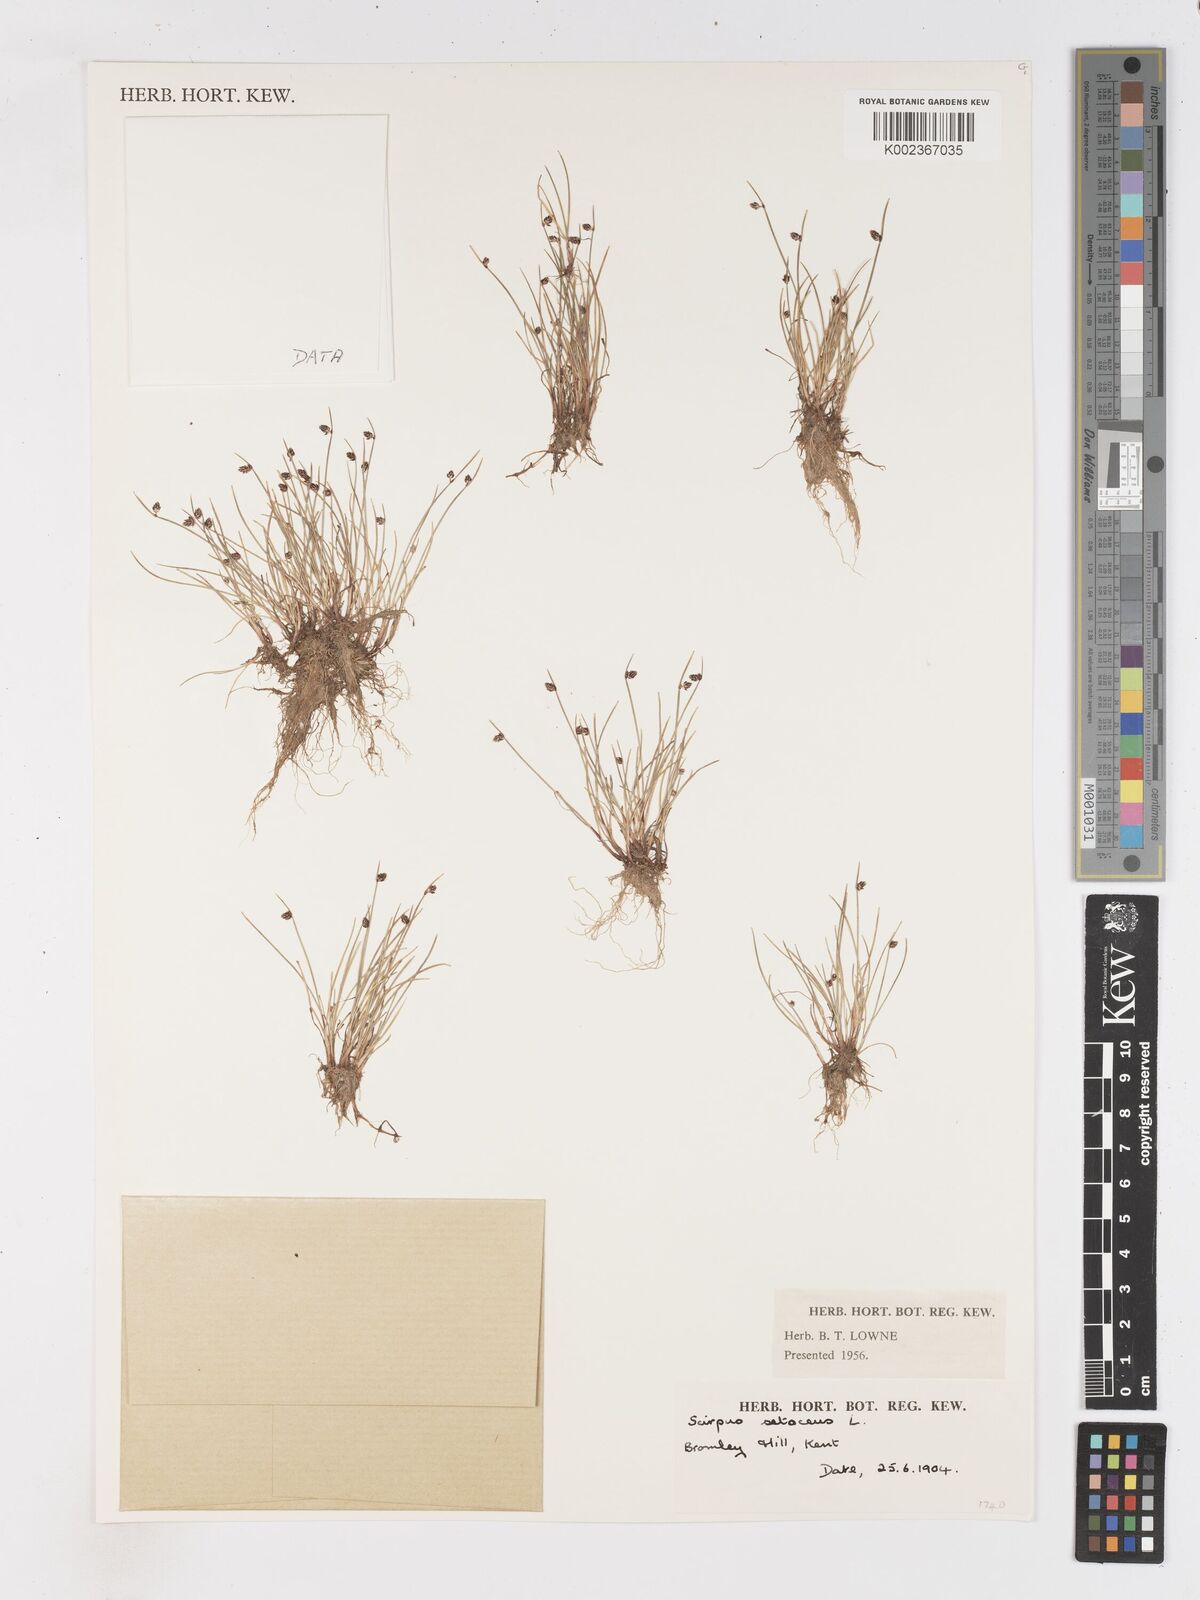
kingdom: Plantae
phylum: Tracheophyta
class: Liliopsida
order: Poales
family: Cyperaceae
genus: Isolepis
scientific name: Isolepis setacea
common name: Bristle club-rush
